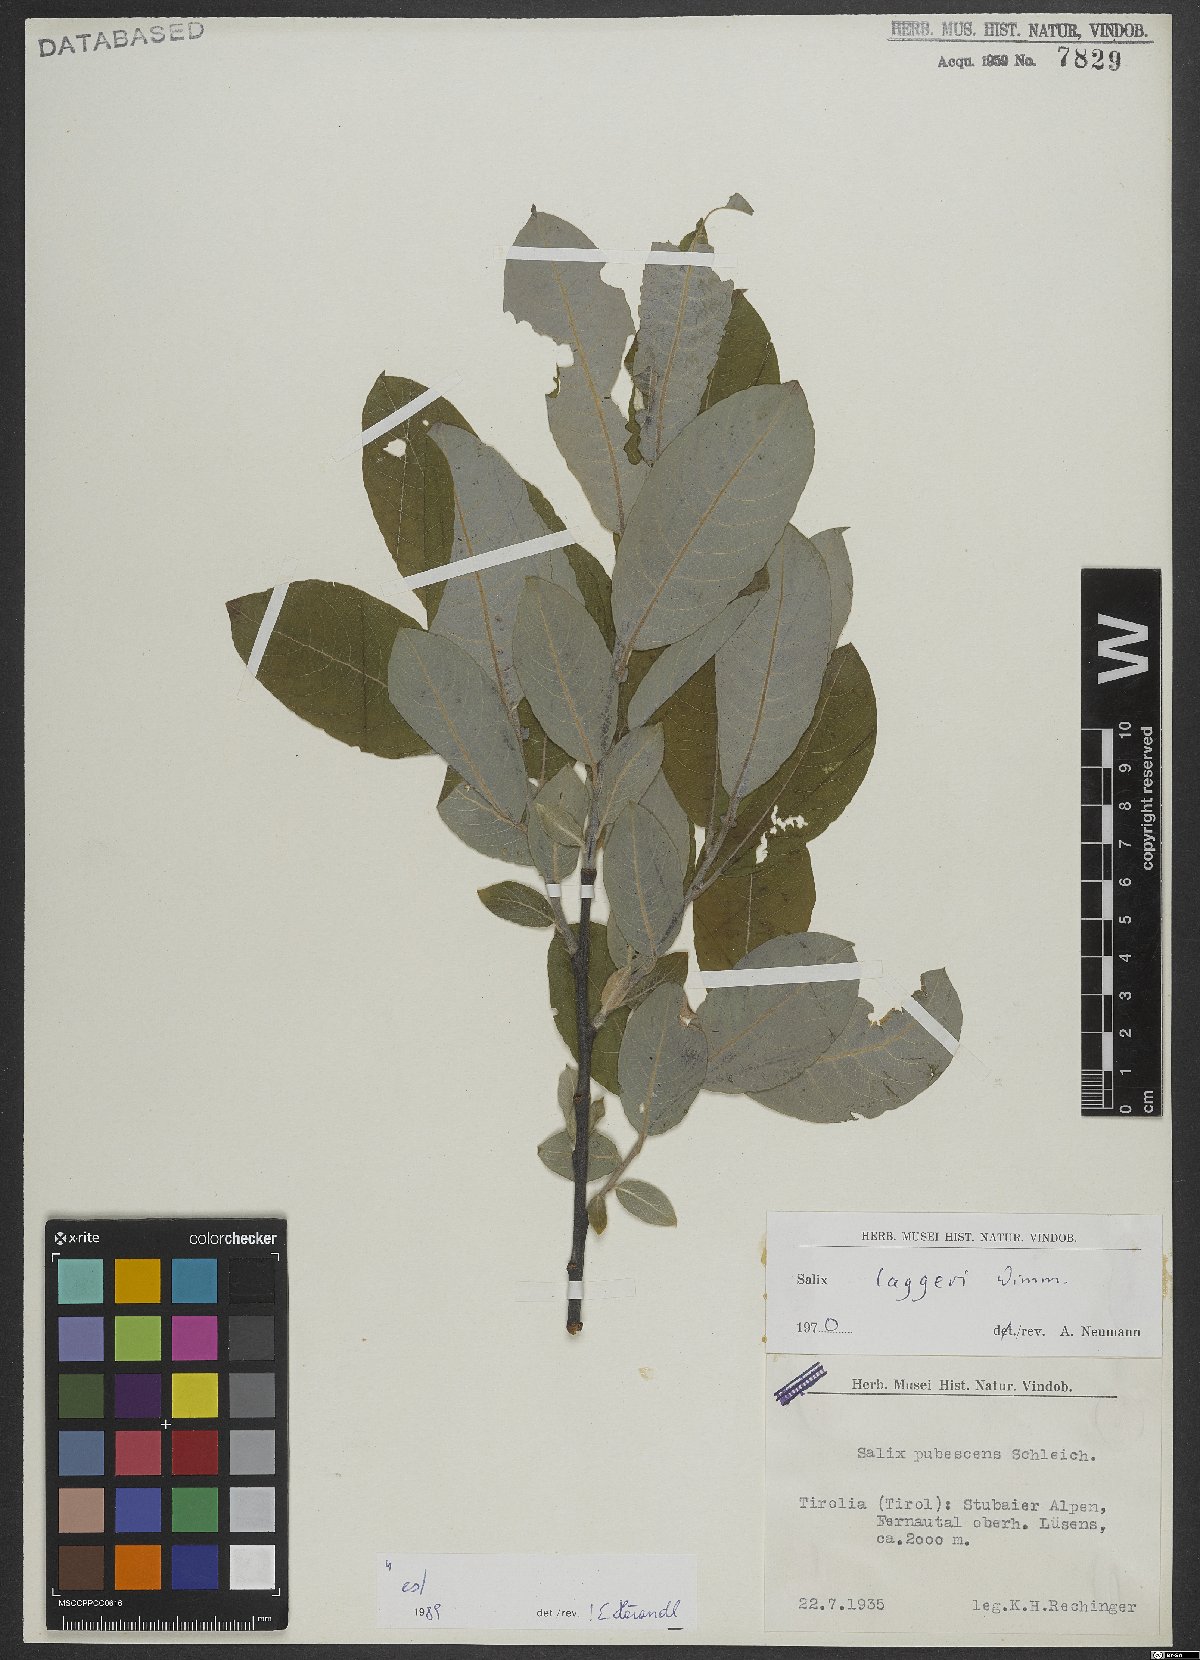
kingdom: Plantae
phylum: Tracheophyta
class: Magnoliopsida
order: Malpighiales
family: Salicaceae
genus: Salix
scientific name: Salix laggeri
